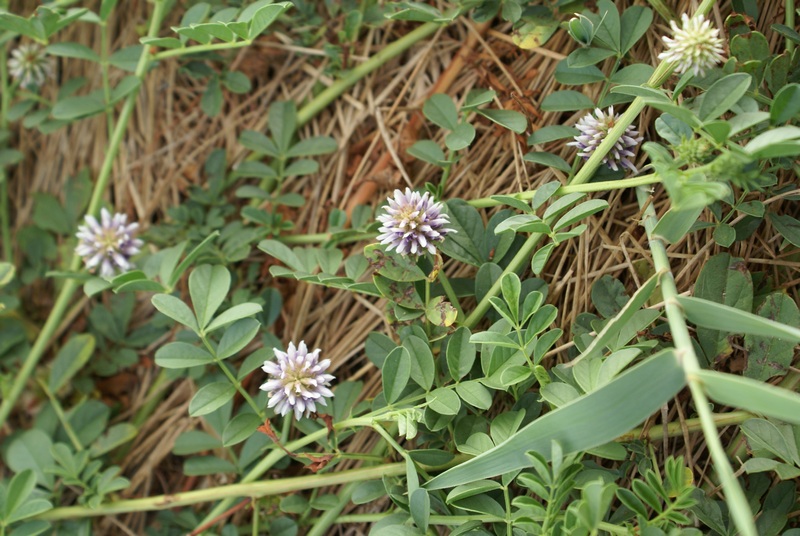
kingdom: Plantae
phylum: Tracheophyta
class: Magnoliopsida
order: Fabales
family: Fabaceae
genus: Glycyrrhiza
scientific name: Glycyrrhiza echinata
